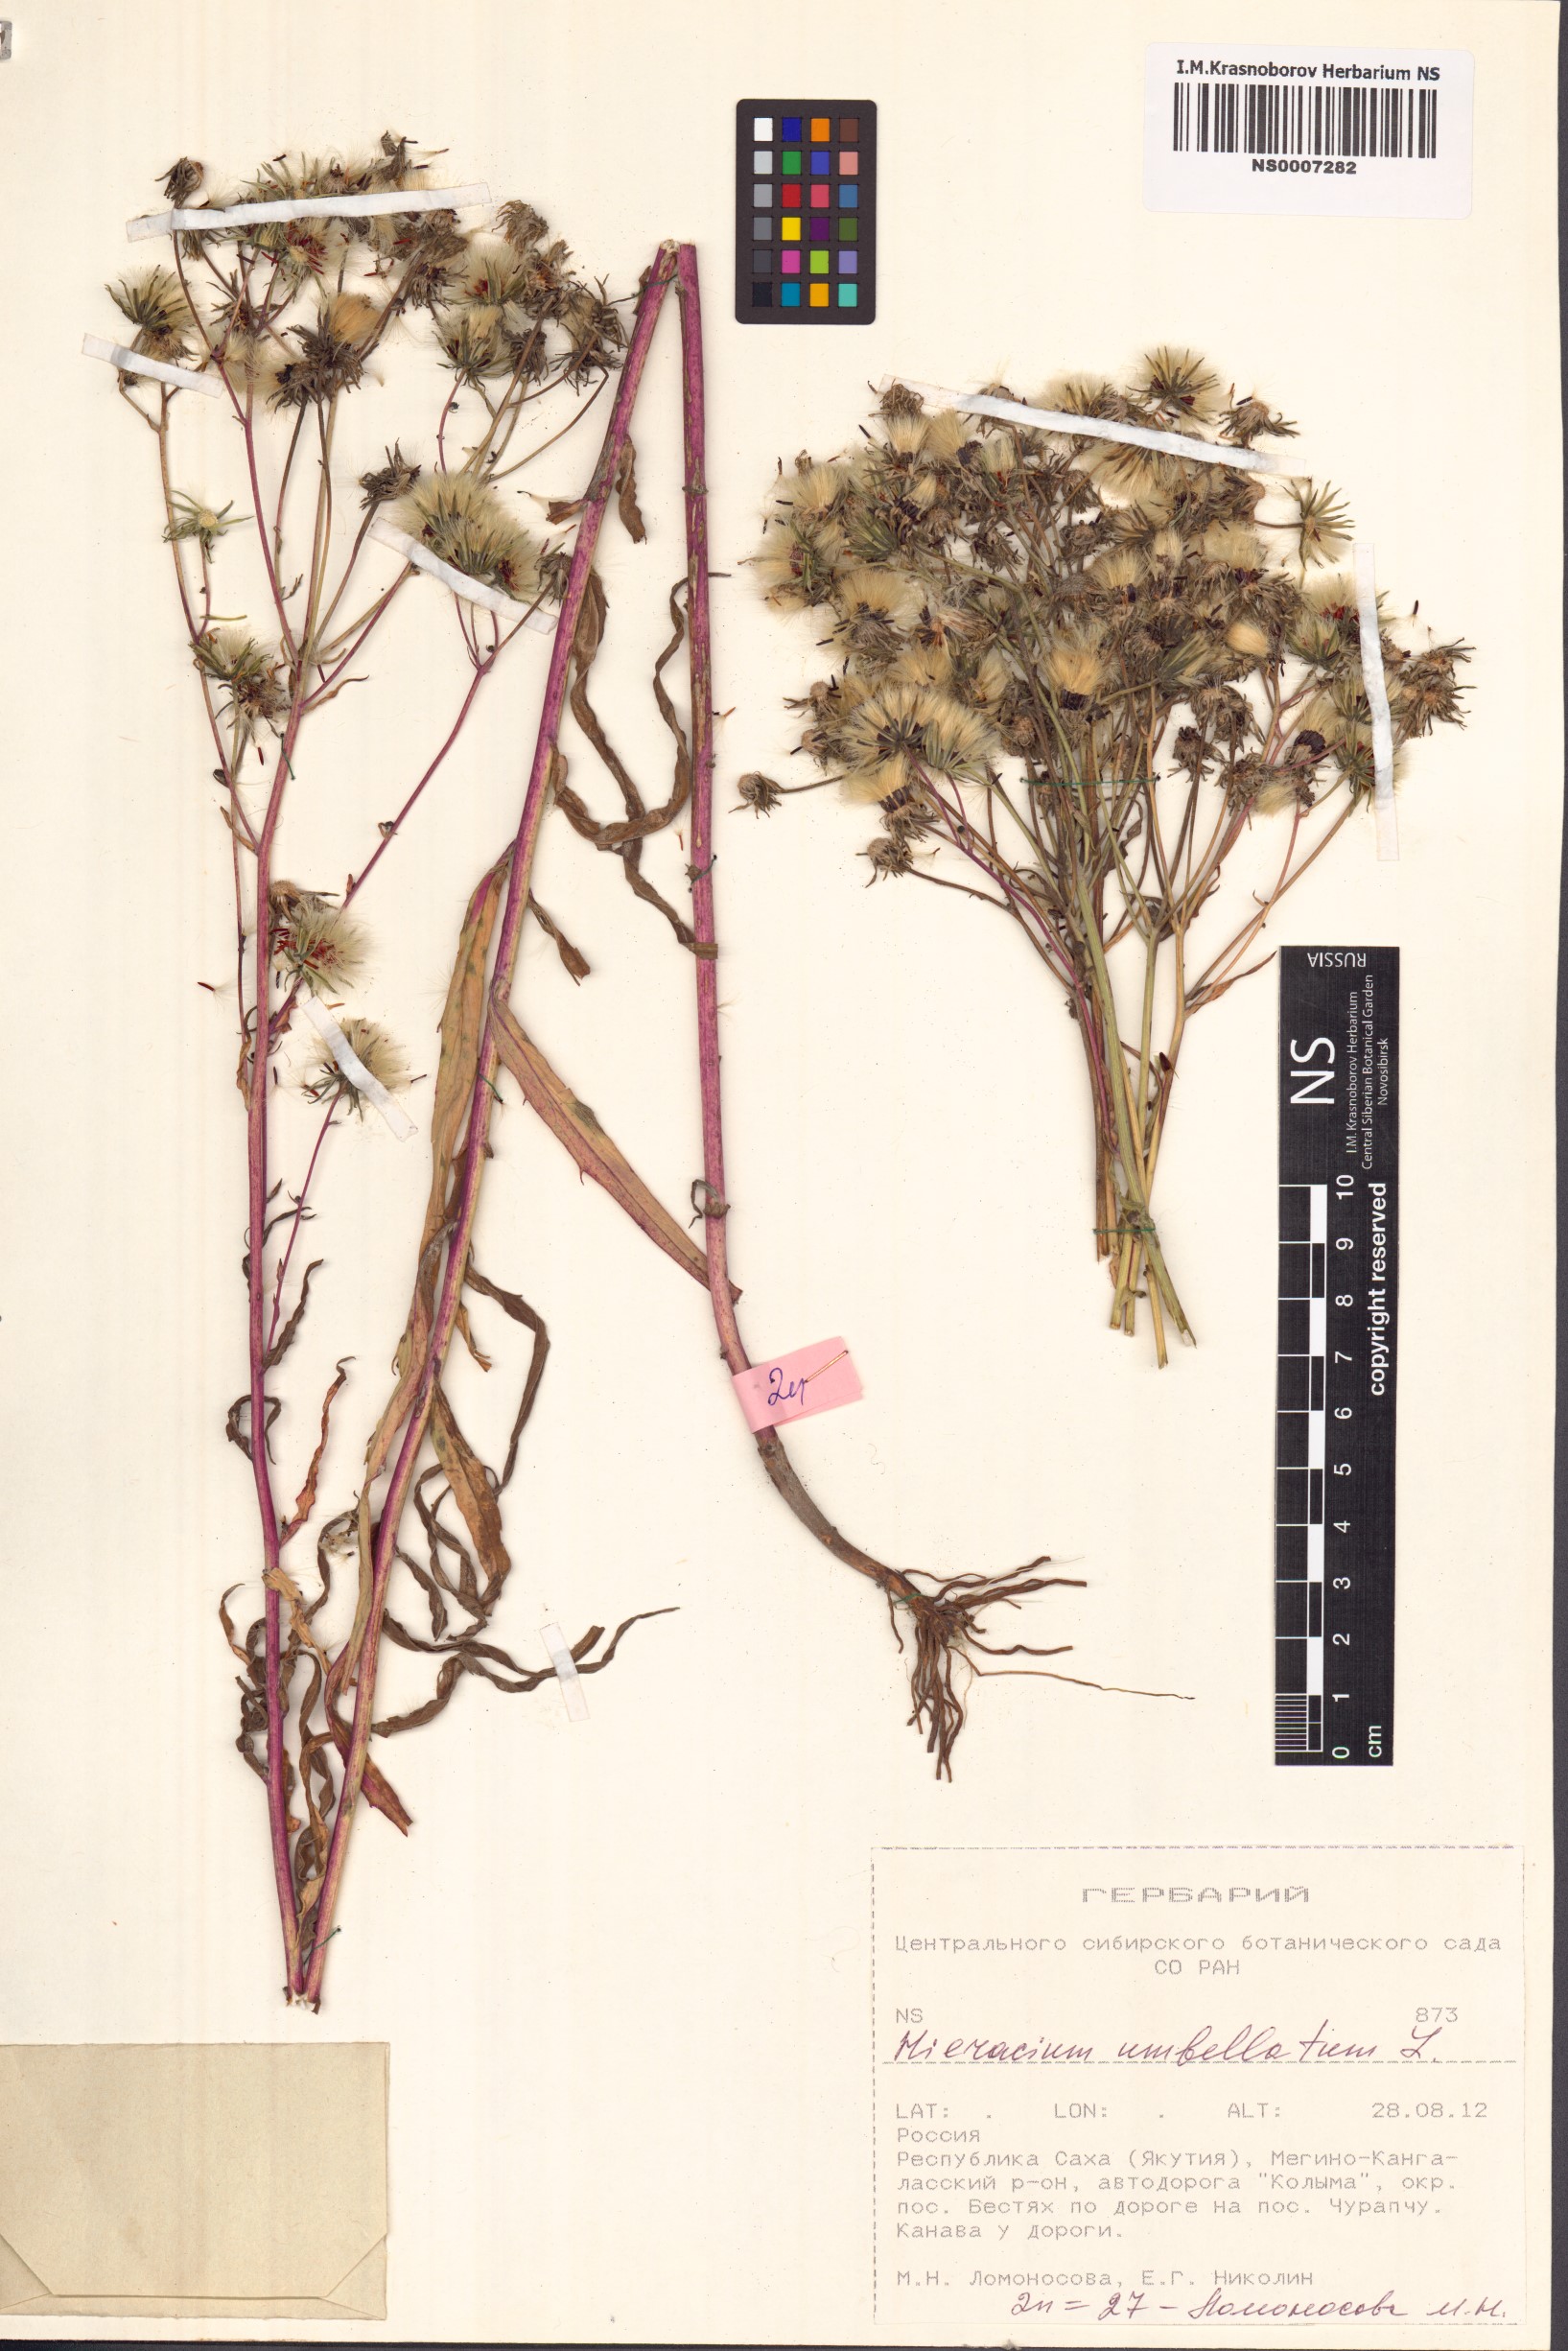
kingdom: Plantae
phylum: Tracheophyta
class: Magnoliopsida
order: Asterales
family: Asteraceae
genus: Hieracium
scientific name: Hieracium umbellatum
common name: Northern hawkweed
